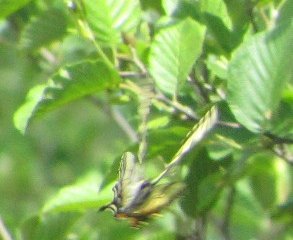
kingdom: Animalia
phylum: Arthropoda
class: Insecta
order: Lepidoptera
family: Papilionidae
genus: Pterourus
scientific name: Pterourus canadensis
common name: Canadian Tiger Swallowtail
